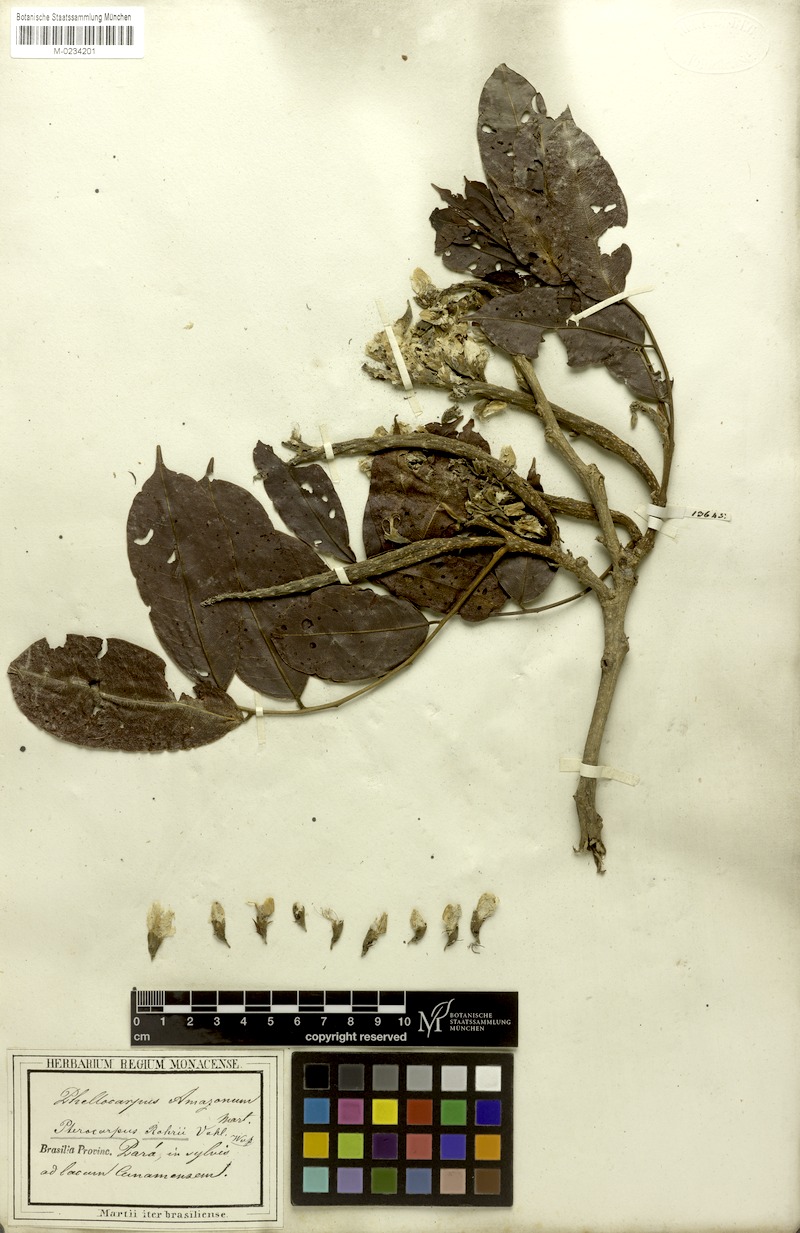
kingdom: Plantae
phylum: Tracheophyta
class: Magnoliopsida
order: Fabales
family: Fabaceae
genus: Pterocarpus
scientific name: Pterocarpus amazonum
